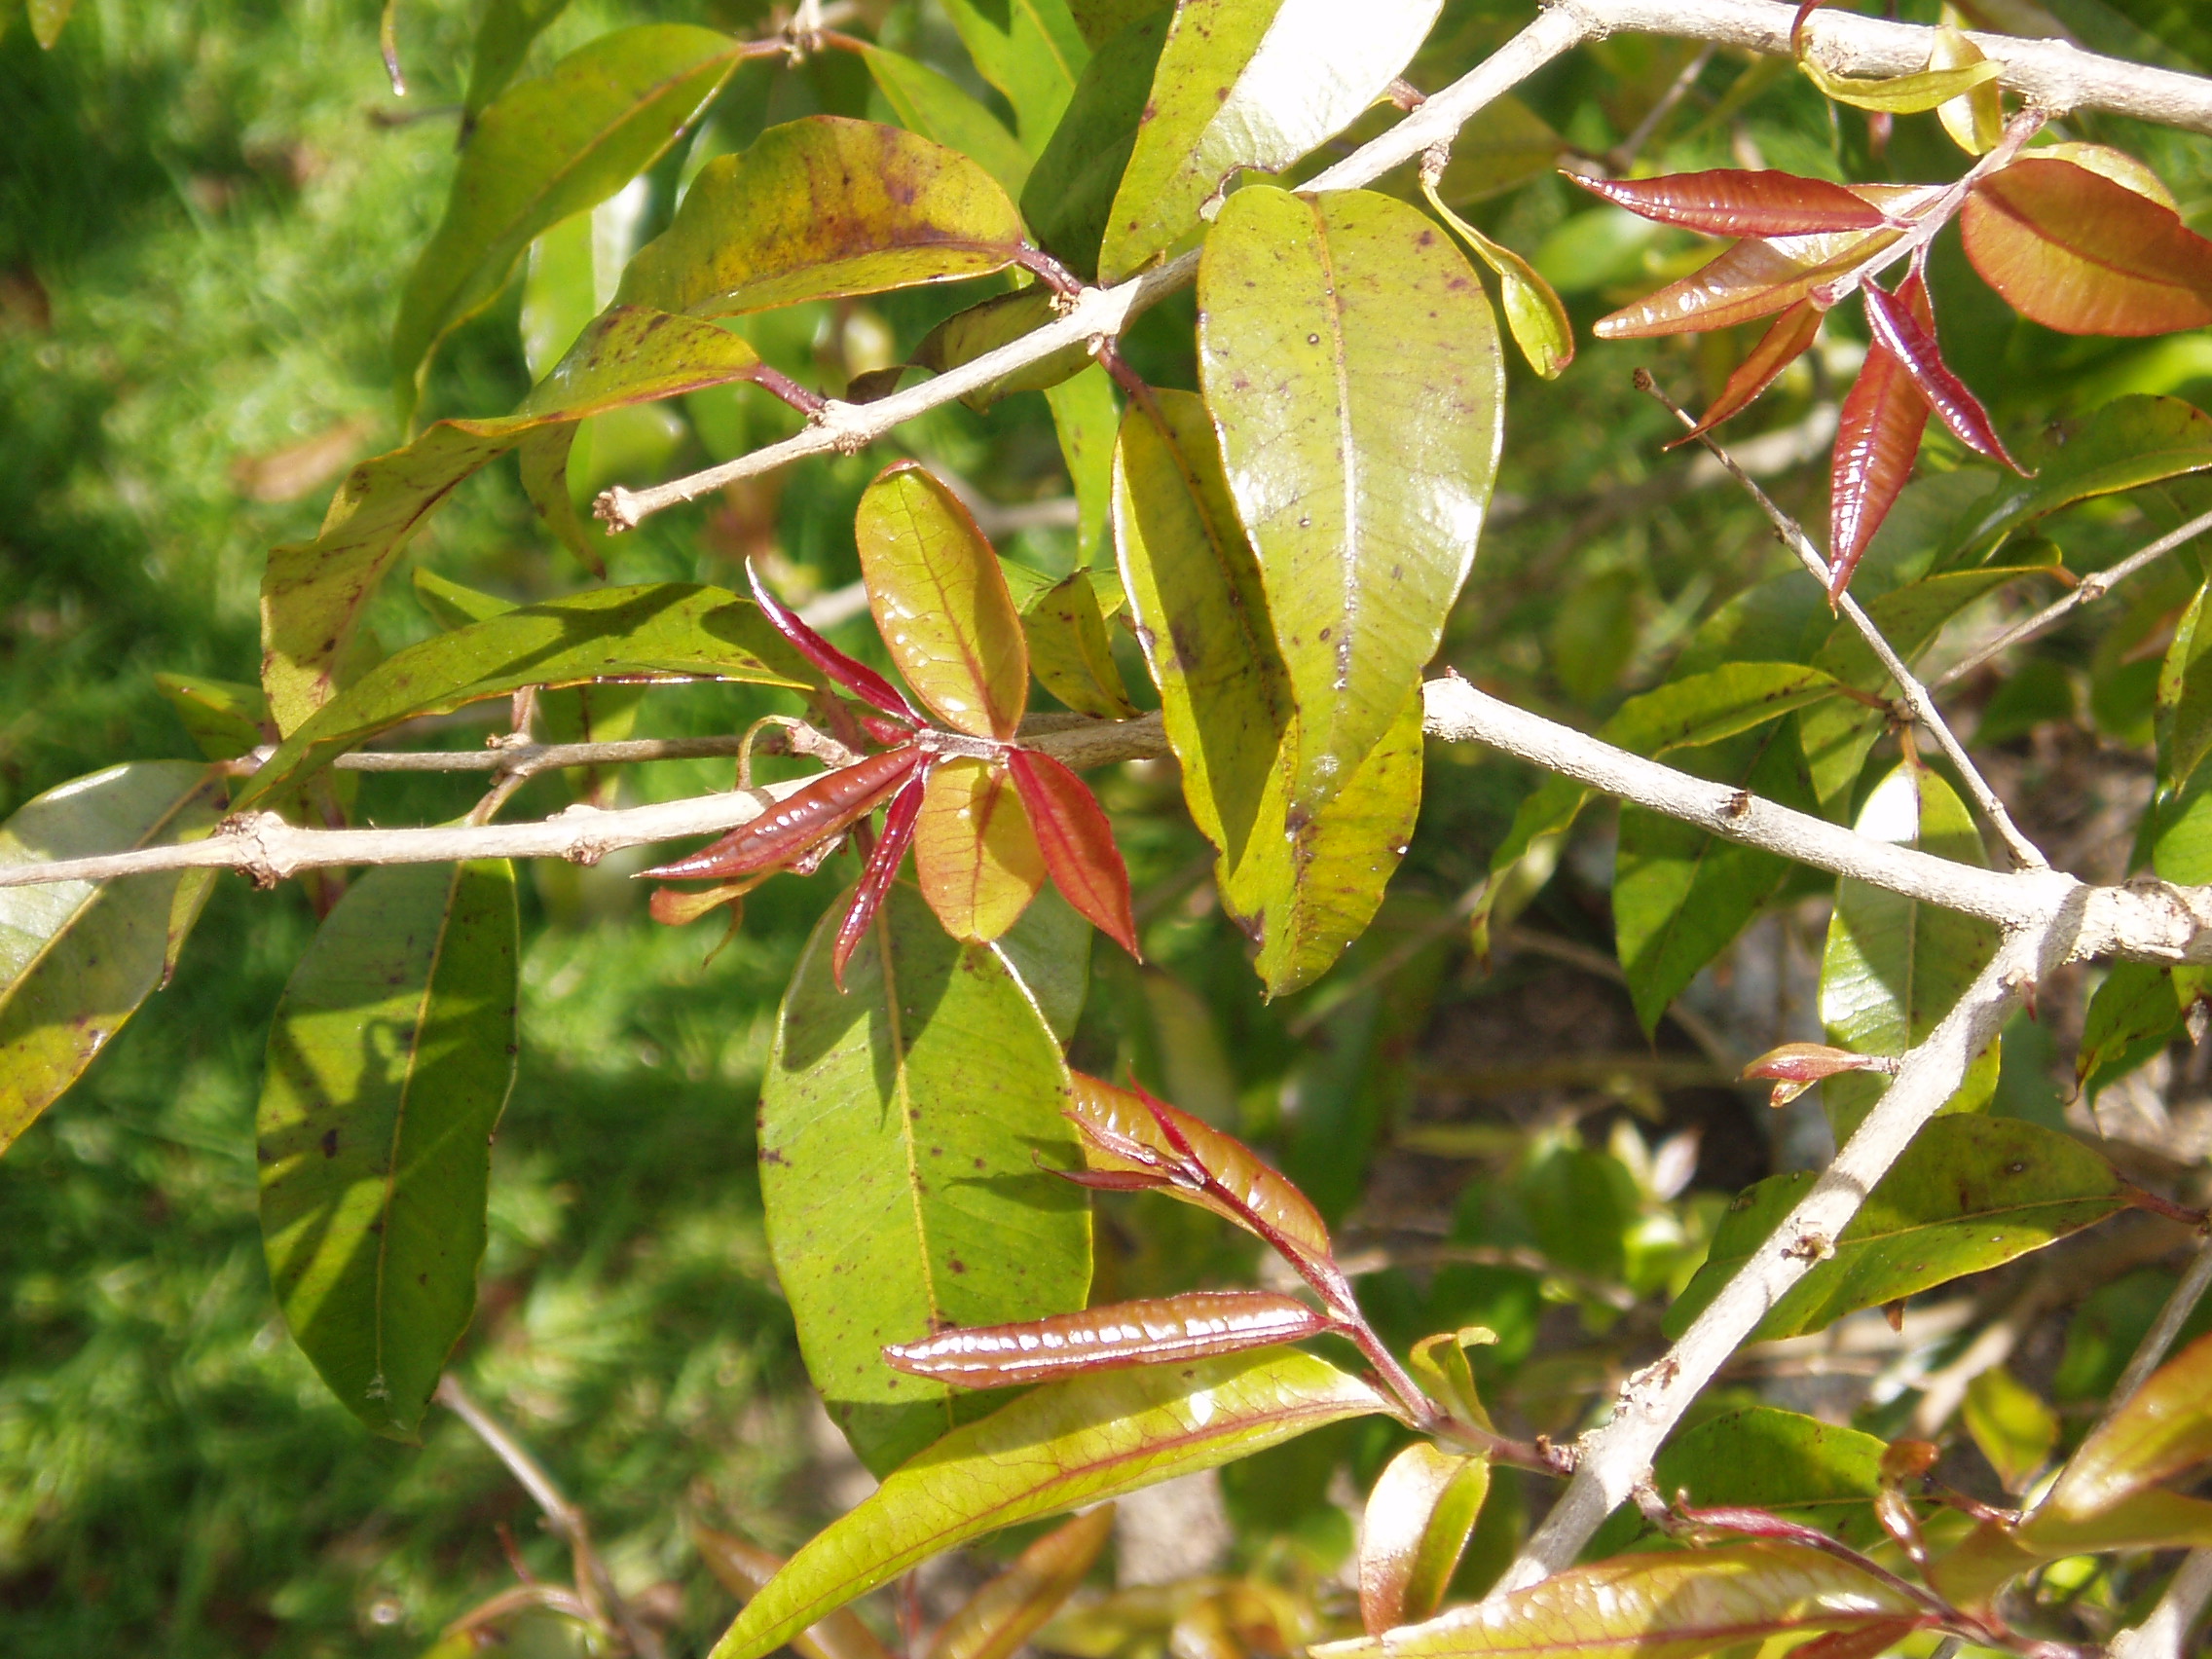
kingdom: Plantae
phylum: Tracheophyta
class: Magnoliopsida
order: Myrtales
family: Myrtaceae
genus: Blepharocalyx
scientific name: Blepharocalyx salicifolius
